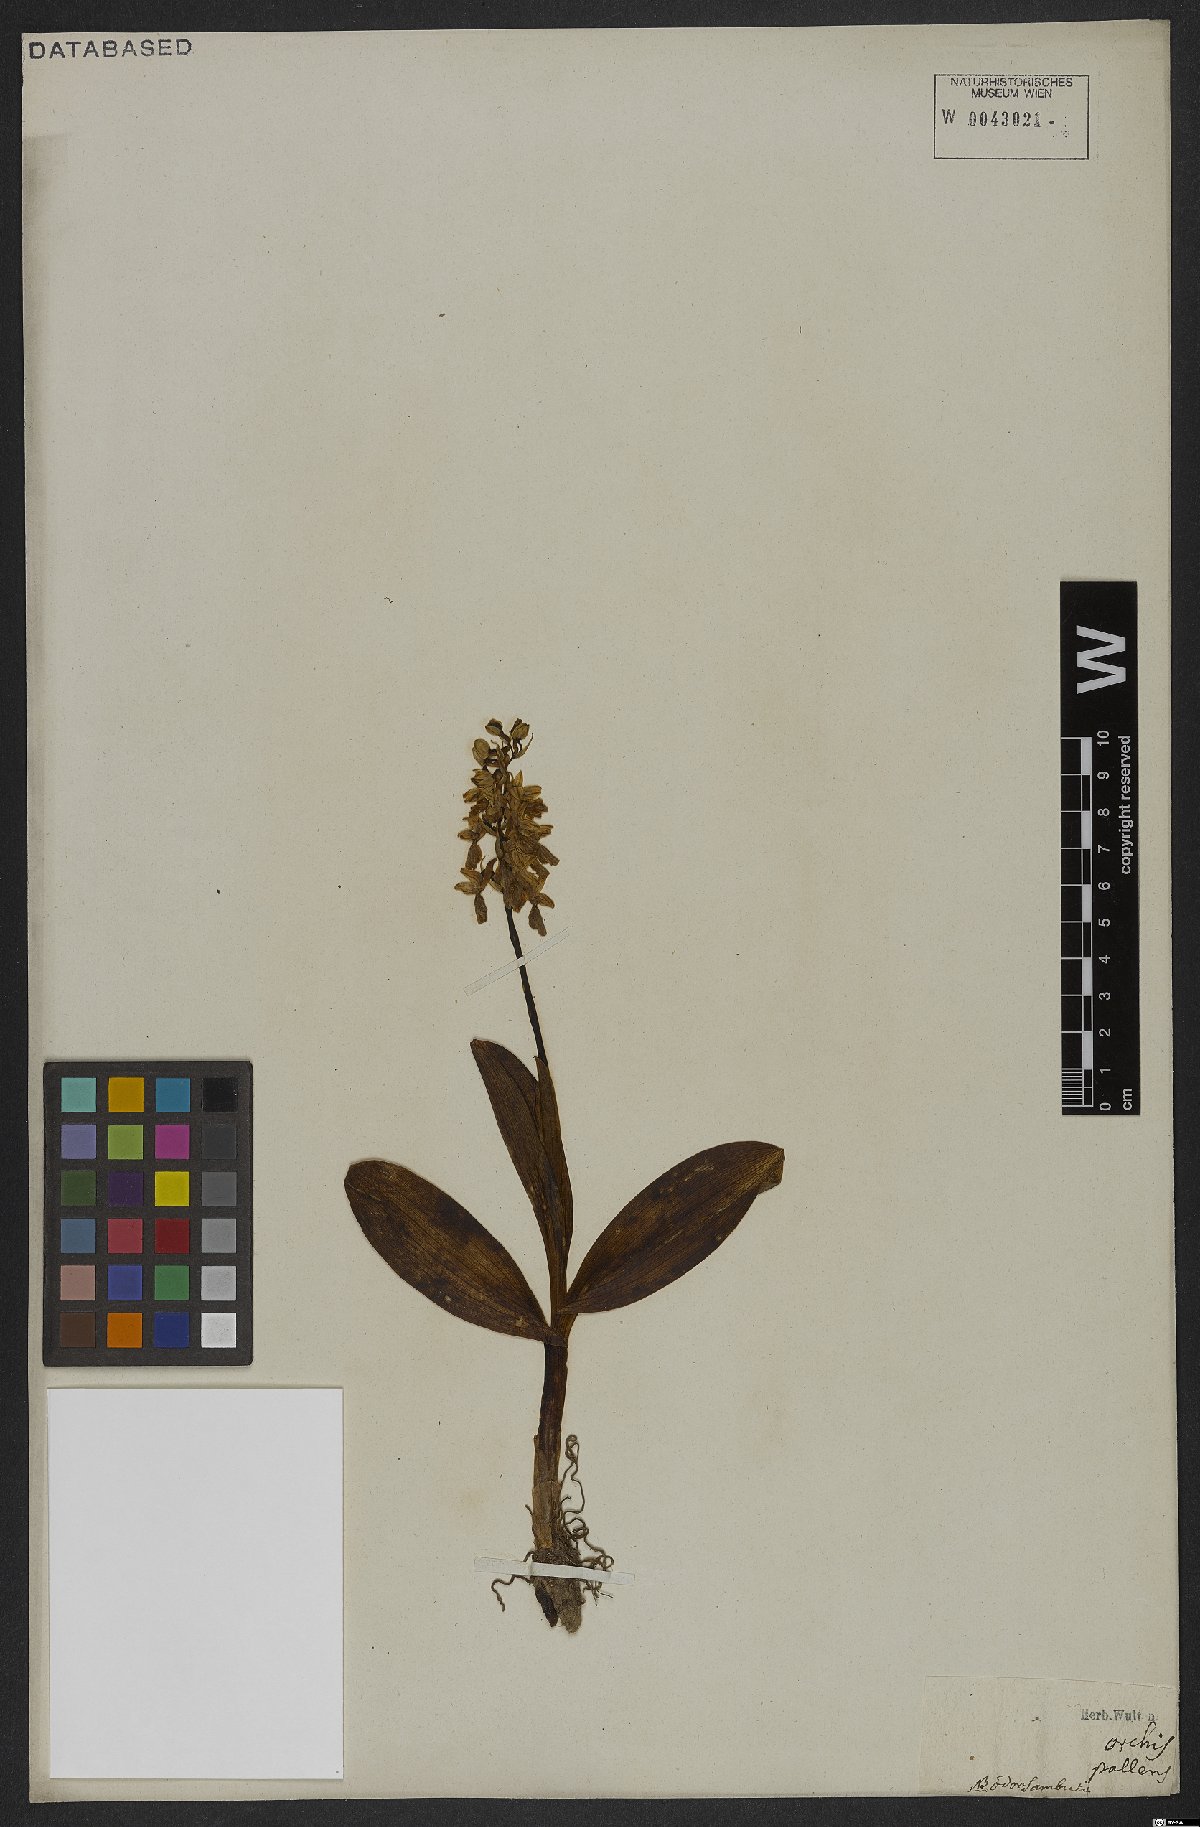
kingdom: Plantae
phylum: Tracheophyta
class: Liliopsida
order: Asparagales
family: Orchidaceae
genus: Orchis
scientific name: Orchis pallens
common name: Pale-flowered orchid
